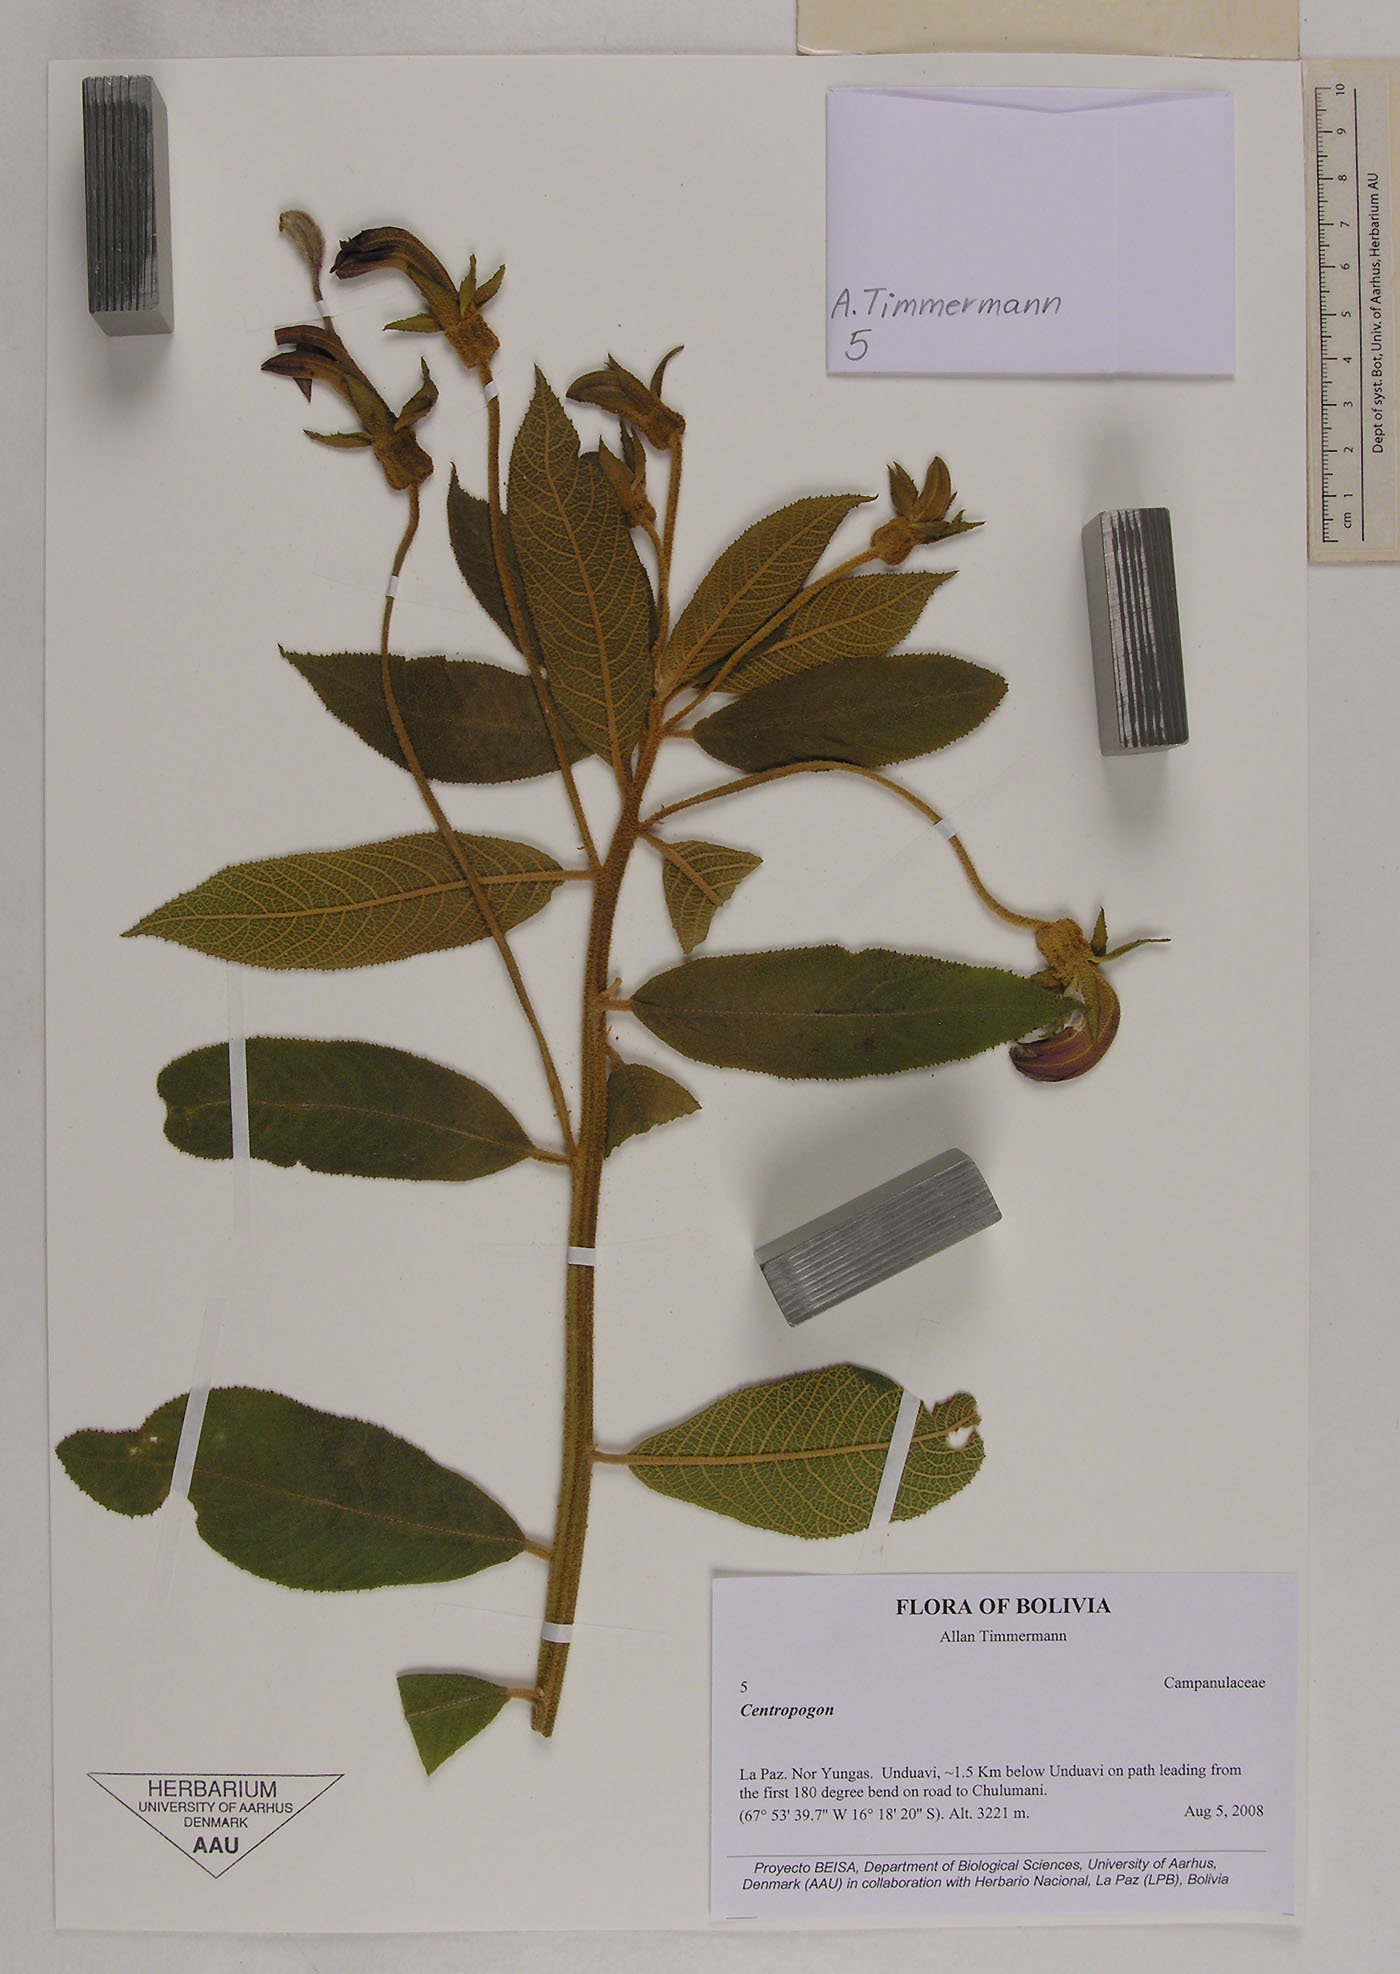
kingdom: Plantae
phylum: Tracheophyta
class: Magnoliopsida
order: Asterales
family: Campanulaceae
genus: Centropogon
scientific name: Centropogon gloriosus
